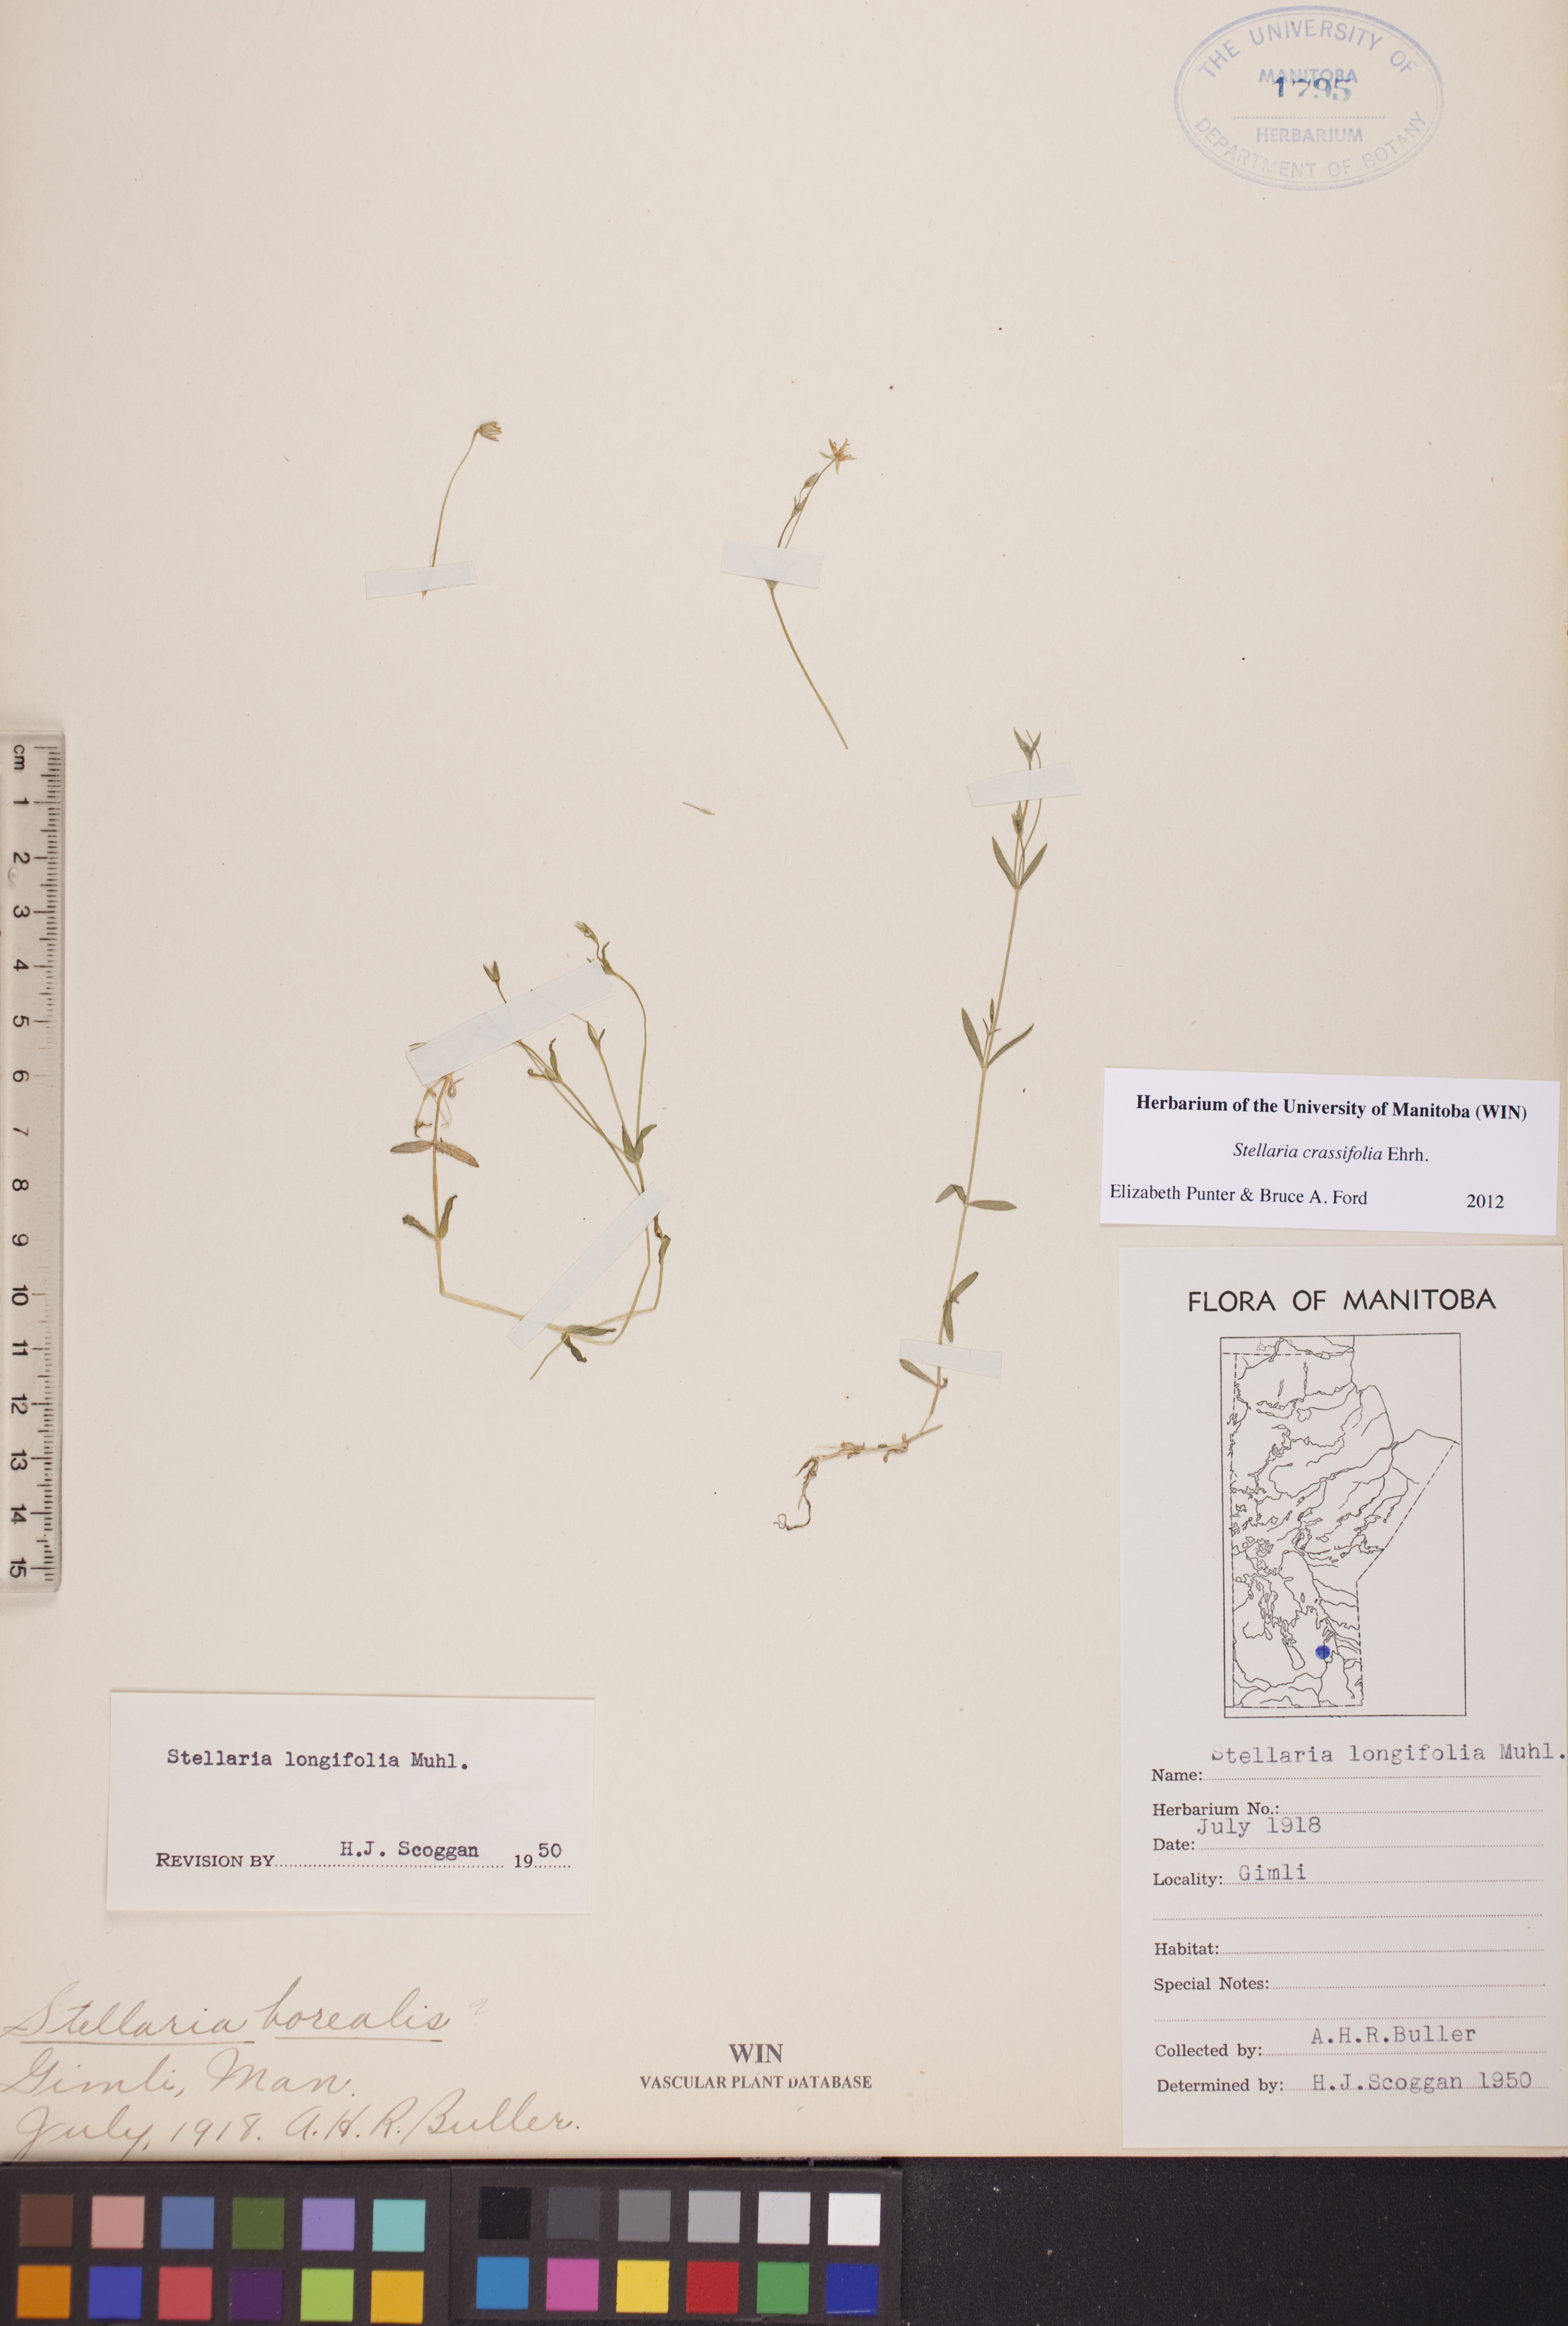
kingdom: Plantae
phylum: Tracheophyta
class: Magnoliopsida
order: Caryophyllales
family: Caryophyllaceae
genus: Stellaria
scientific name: Stellaria crassifolia
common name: Fleshy starwort
